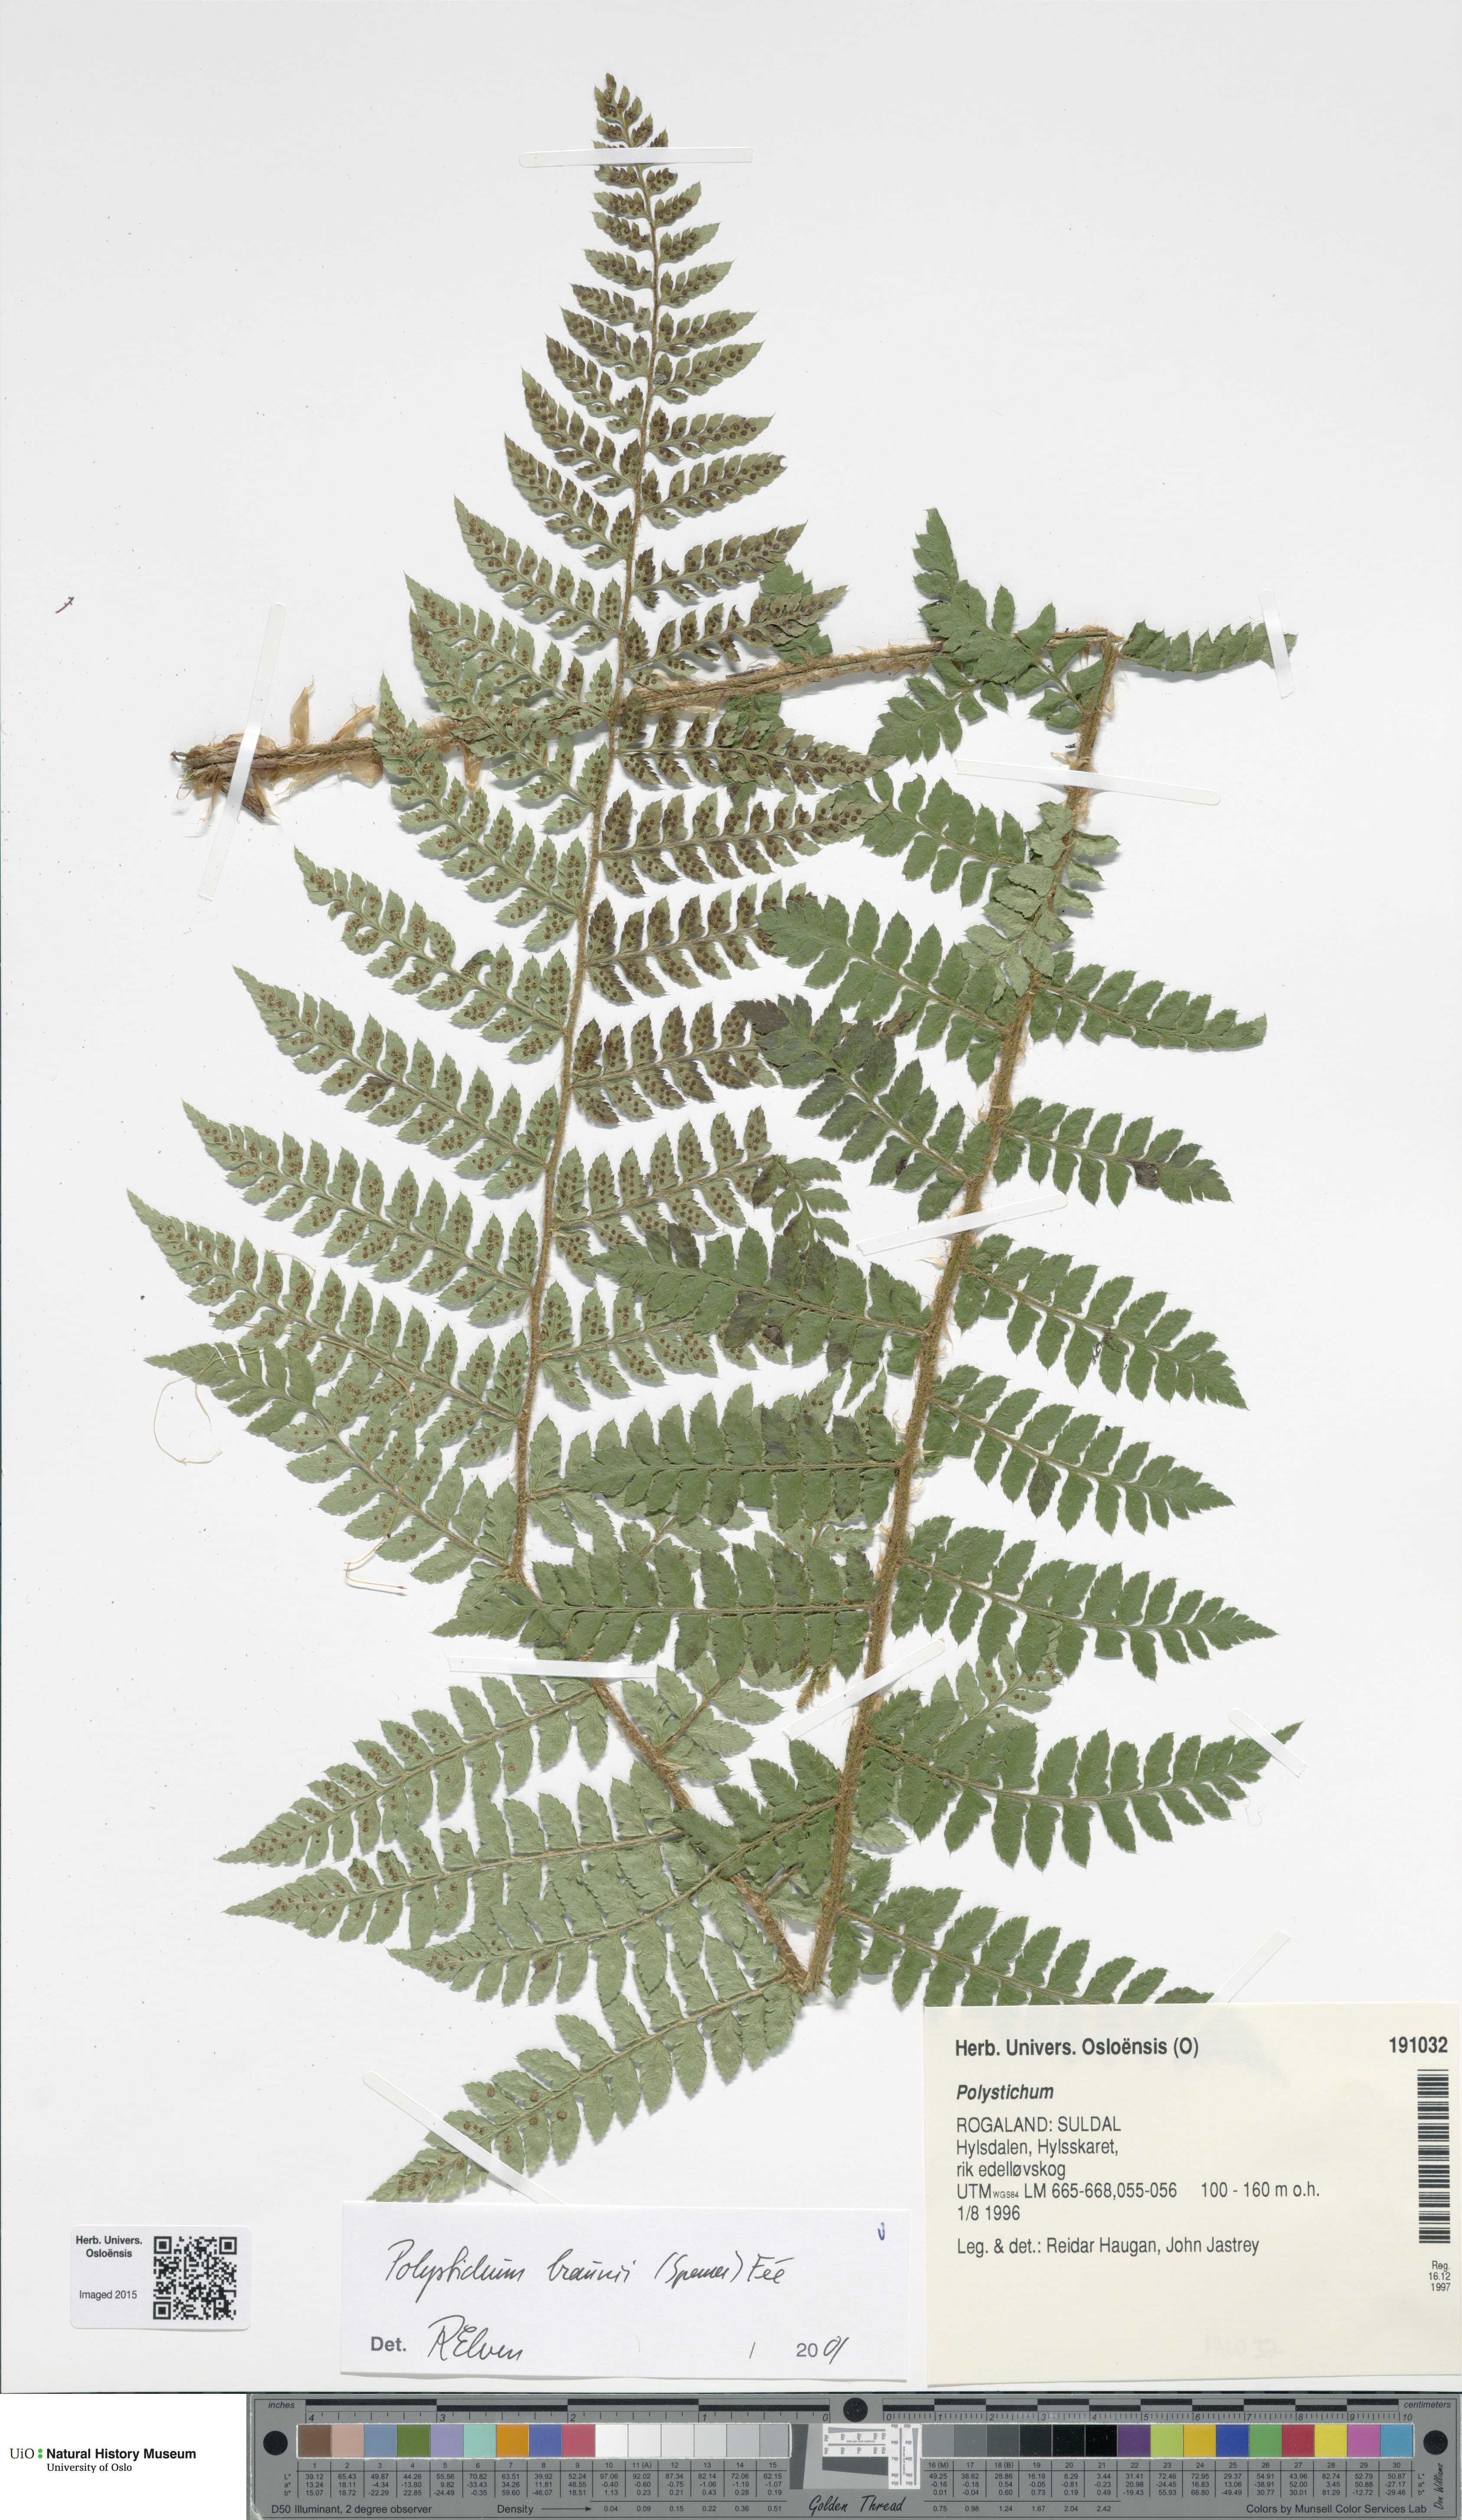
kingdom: Plantae
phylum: Tracheophyta
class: Polypodiopsida
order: Polypodiales
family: Dryopteridaceae
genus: Polystichum
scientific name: Polystichum braunii
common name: Braun's holly fern
